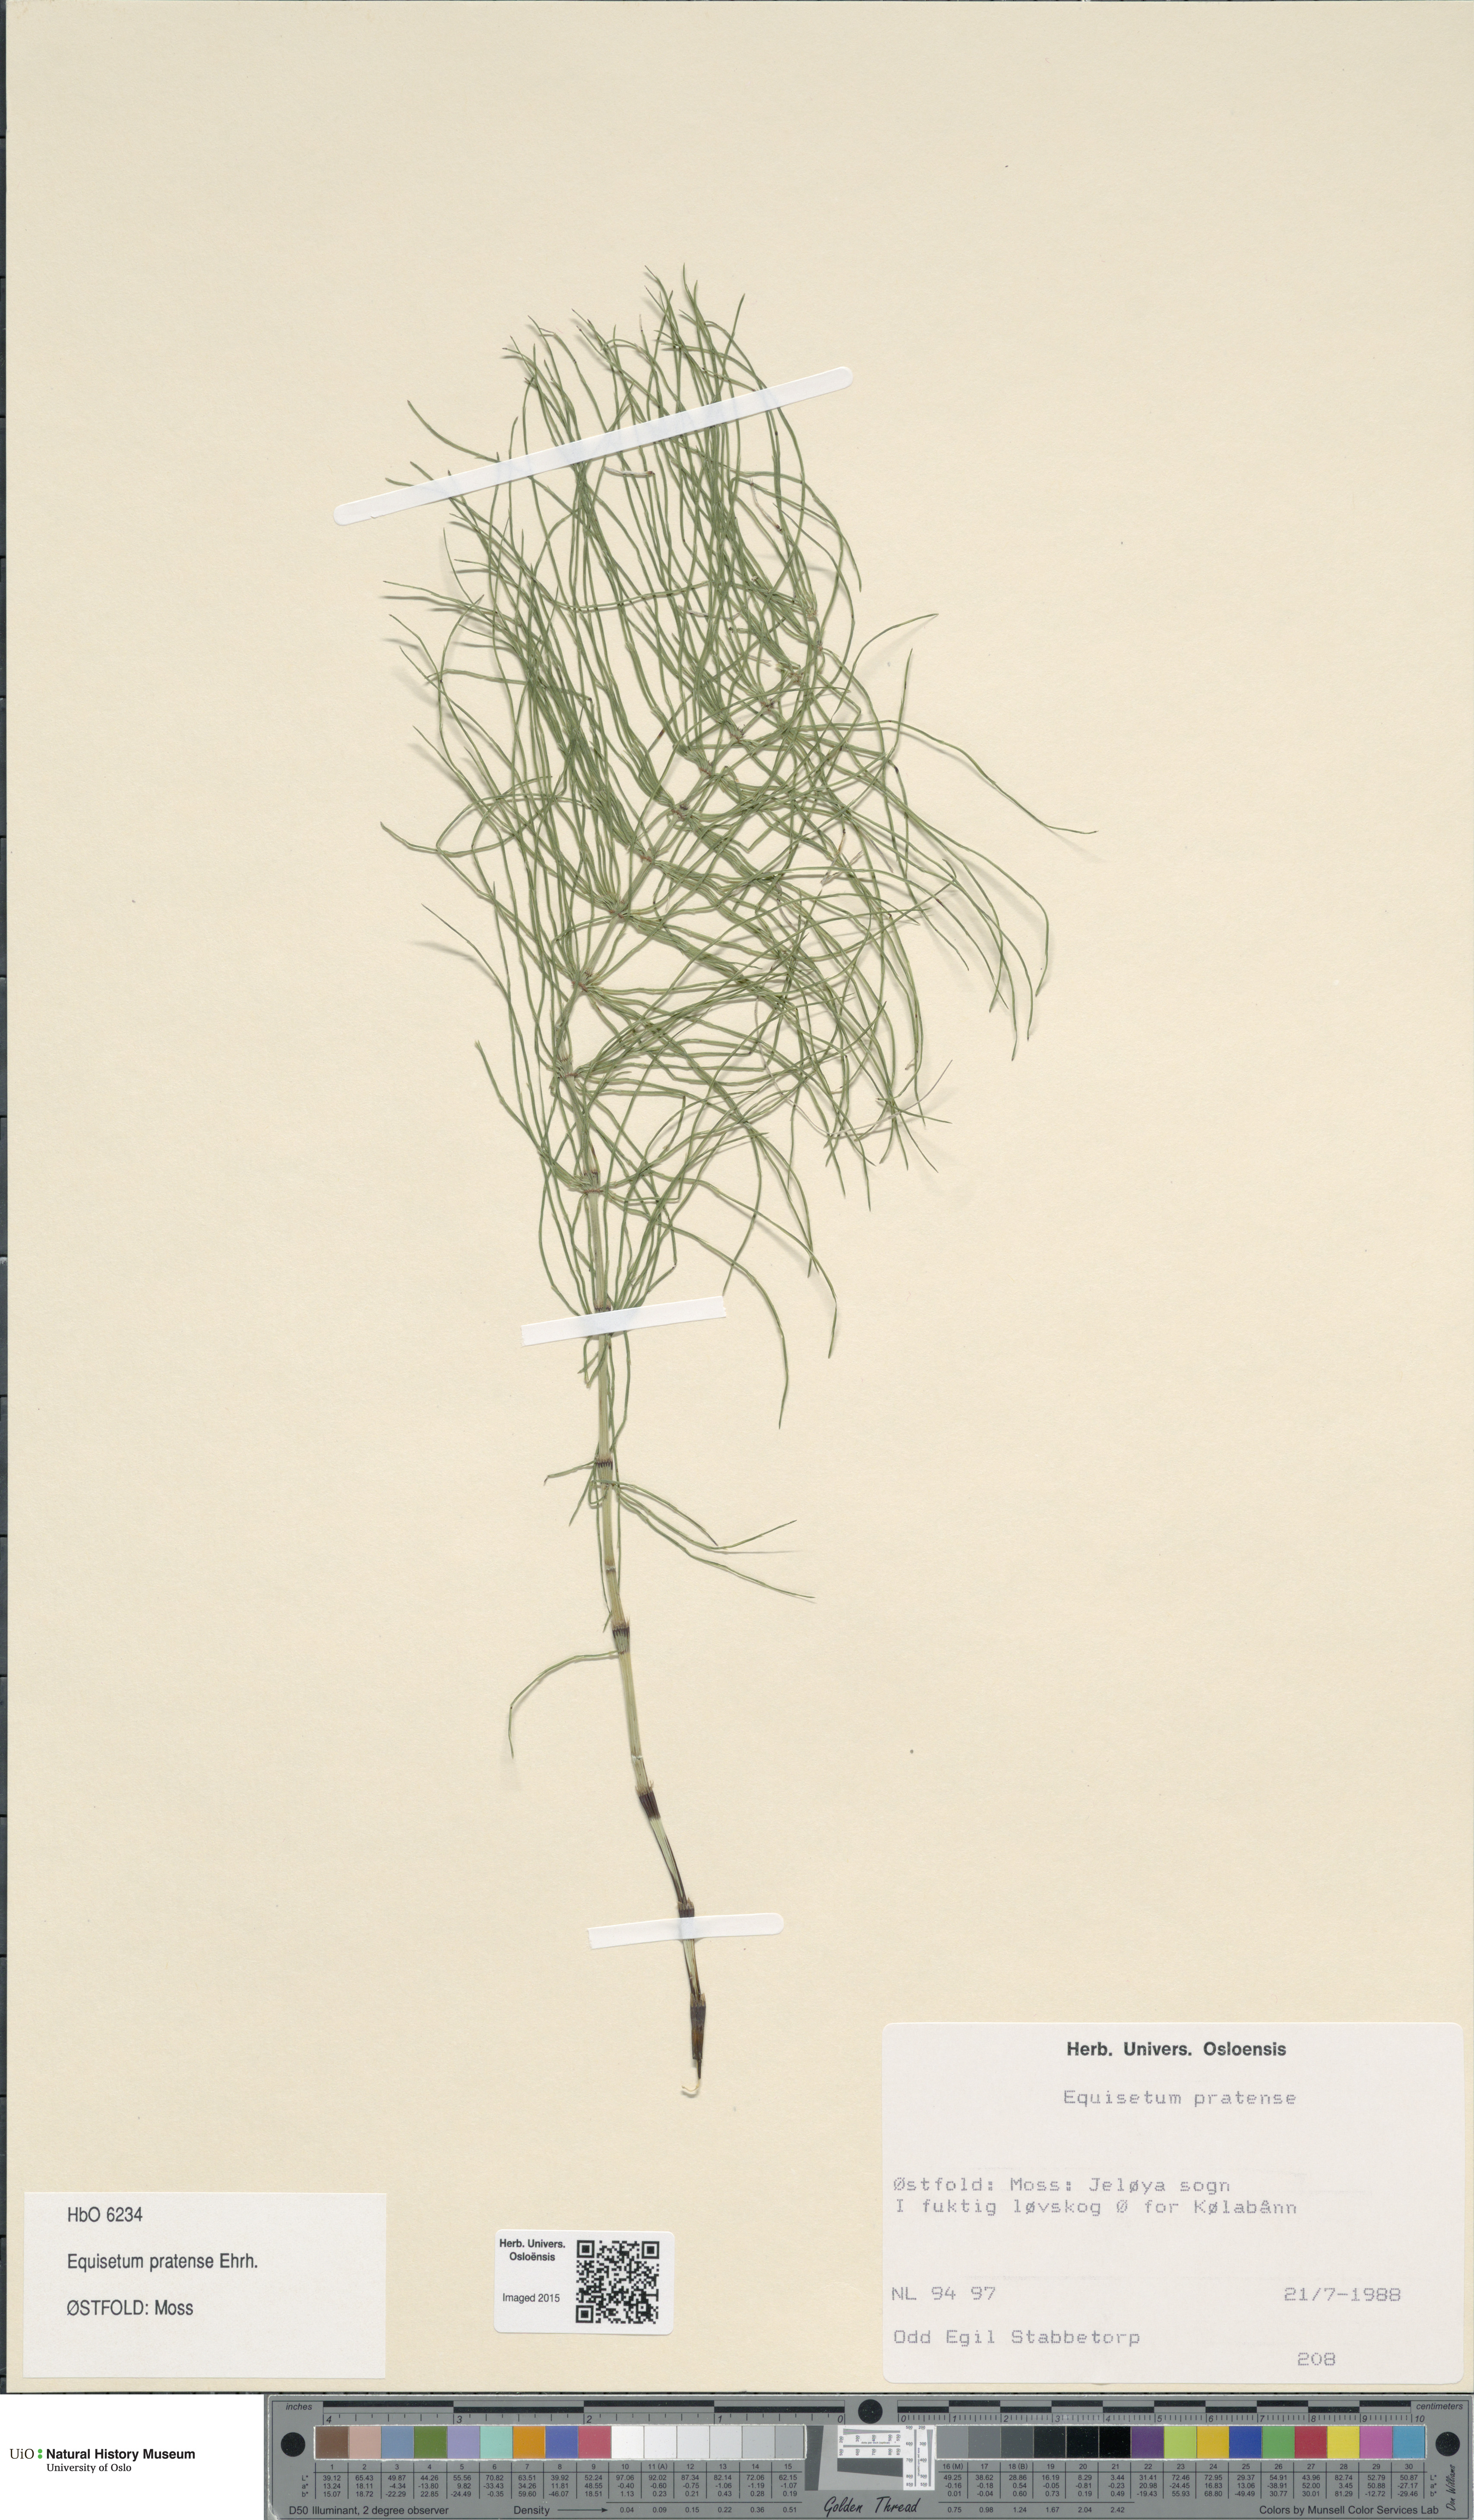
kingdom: Plantae
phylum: Tracheophyta
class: Polypodiopsida
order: Equisetales
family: Equisetaceae
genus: Equisetum
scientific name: Equisetum pratense
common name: Meadow horsetail
